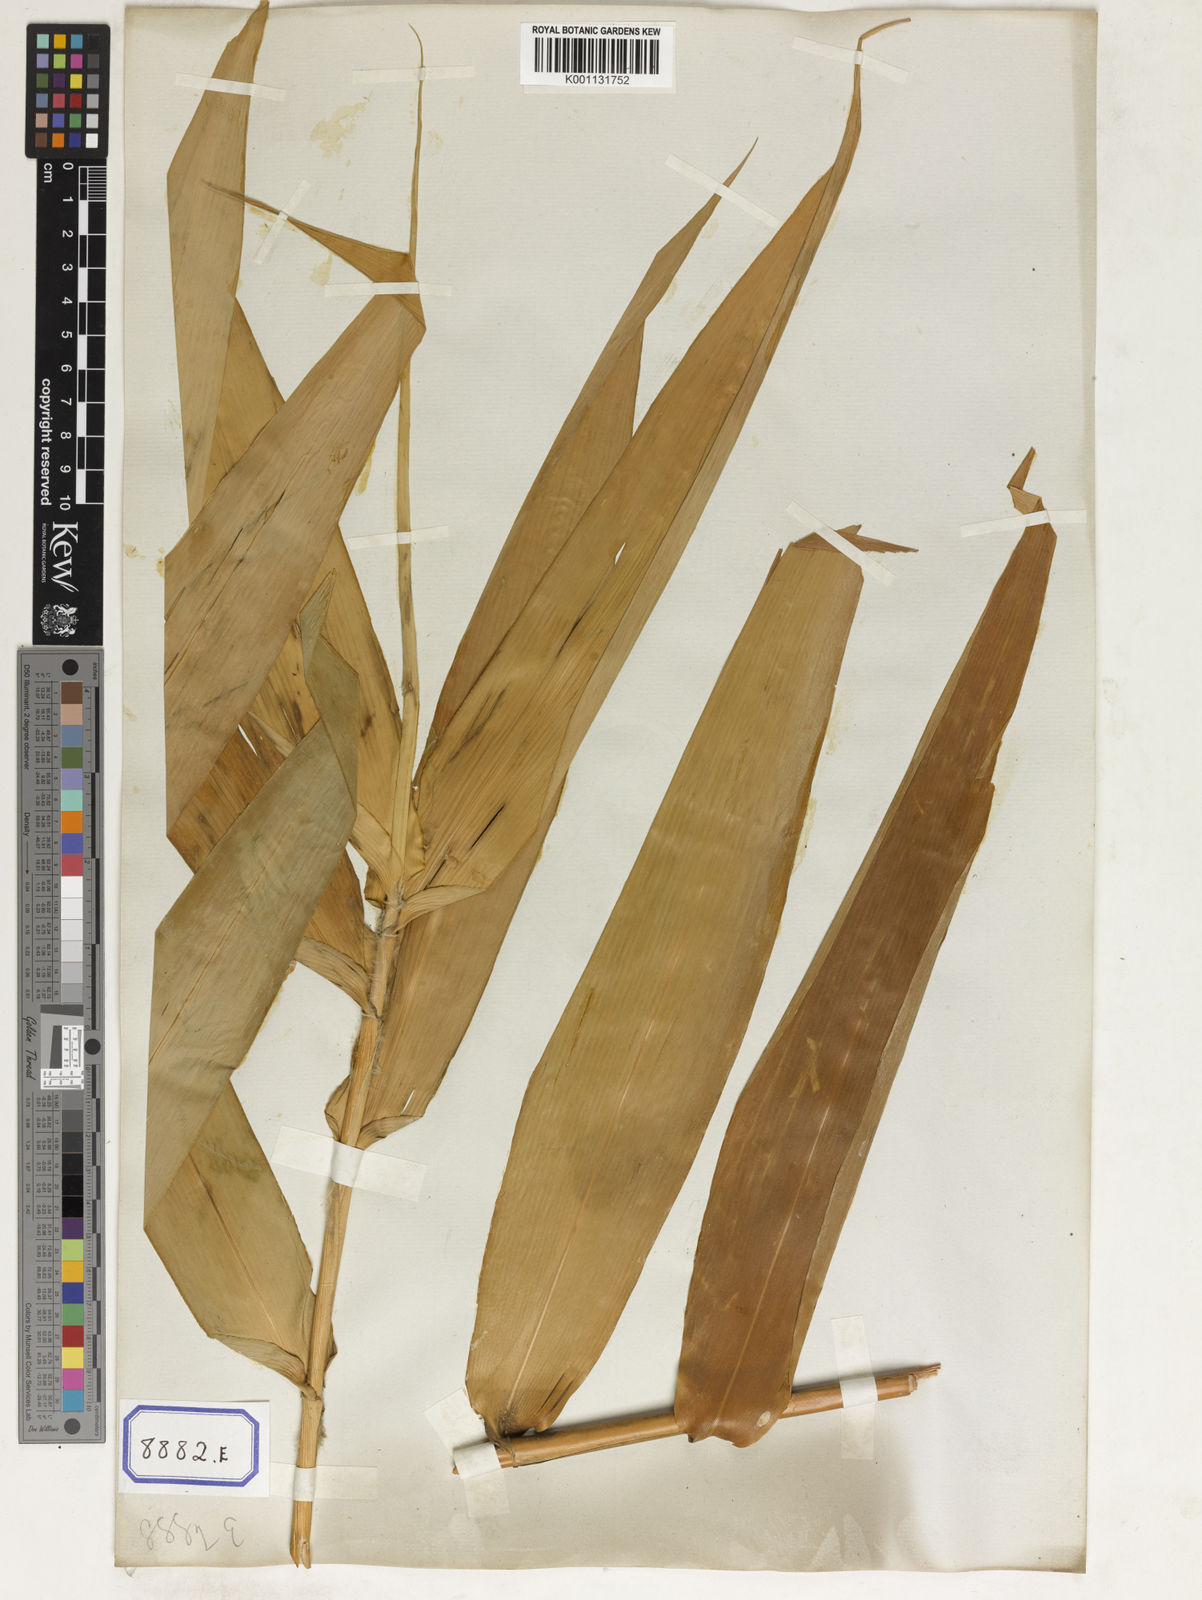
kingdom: Plantae
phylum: Tracheophyta
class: Liliopsida
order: Poales
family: Poaceae
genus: Thysanolaena
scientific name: Thysanolaena latifolia
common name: Tiger grass
